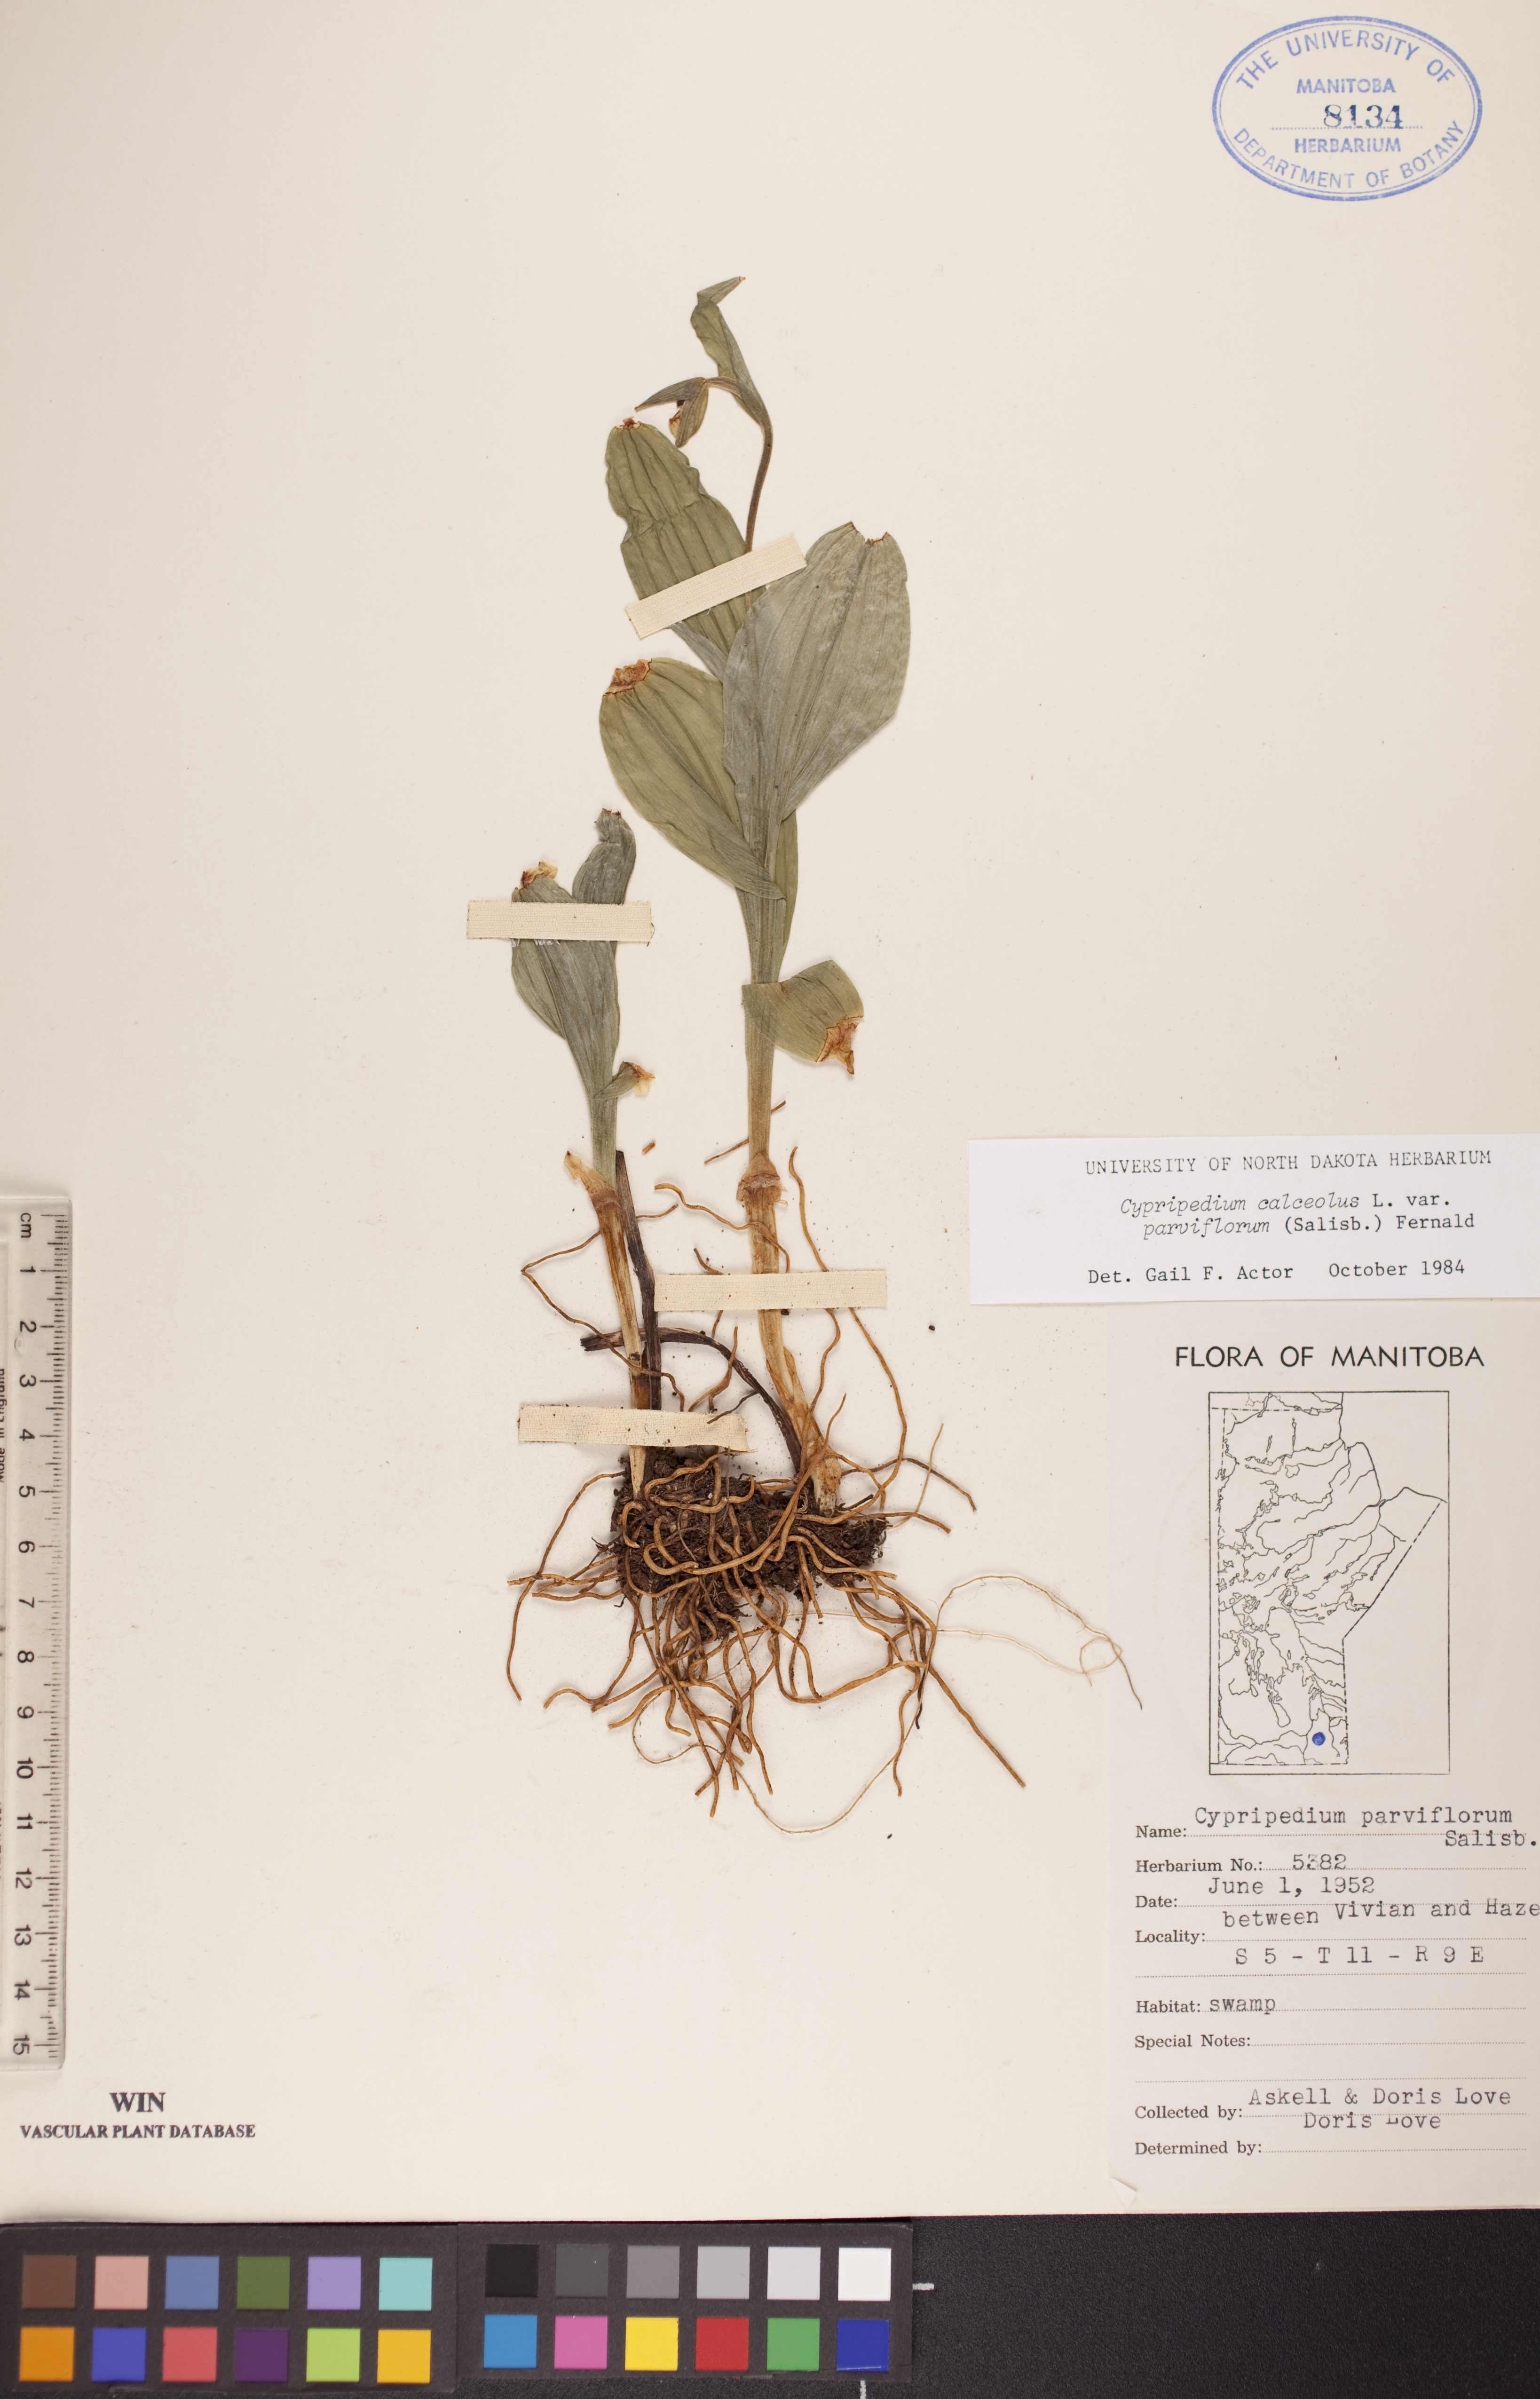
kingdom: Plantae
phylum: Tracheophyta
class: Liliopsida
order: Asparagales
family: Orchidaceae
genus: Cypripedium
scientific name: Cypripedium parviflorum
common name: American yellow lady's-slipper
